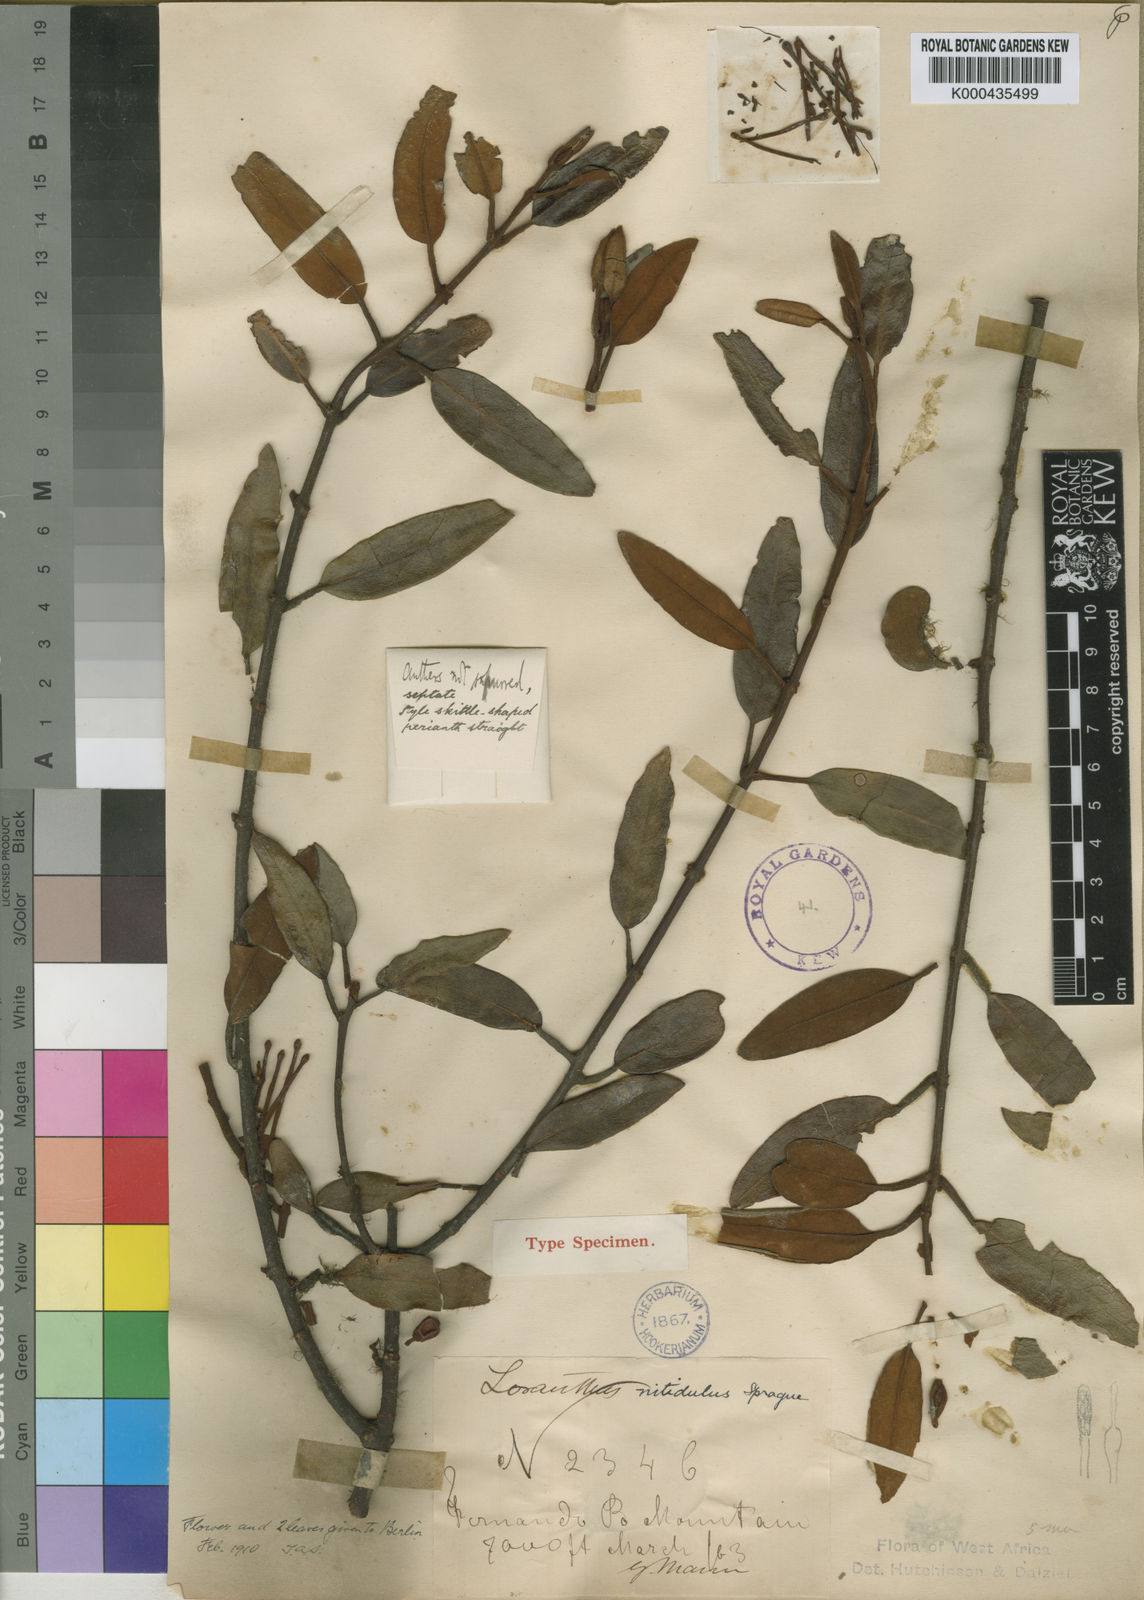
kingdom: Plantae
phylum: Tracheophyta
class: Magnoliopsida
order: Santalales
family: Loranthaceae
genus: Phragmanthera
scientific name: Phragmanthera polycrypta
